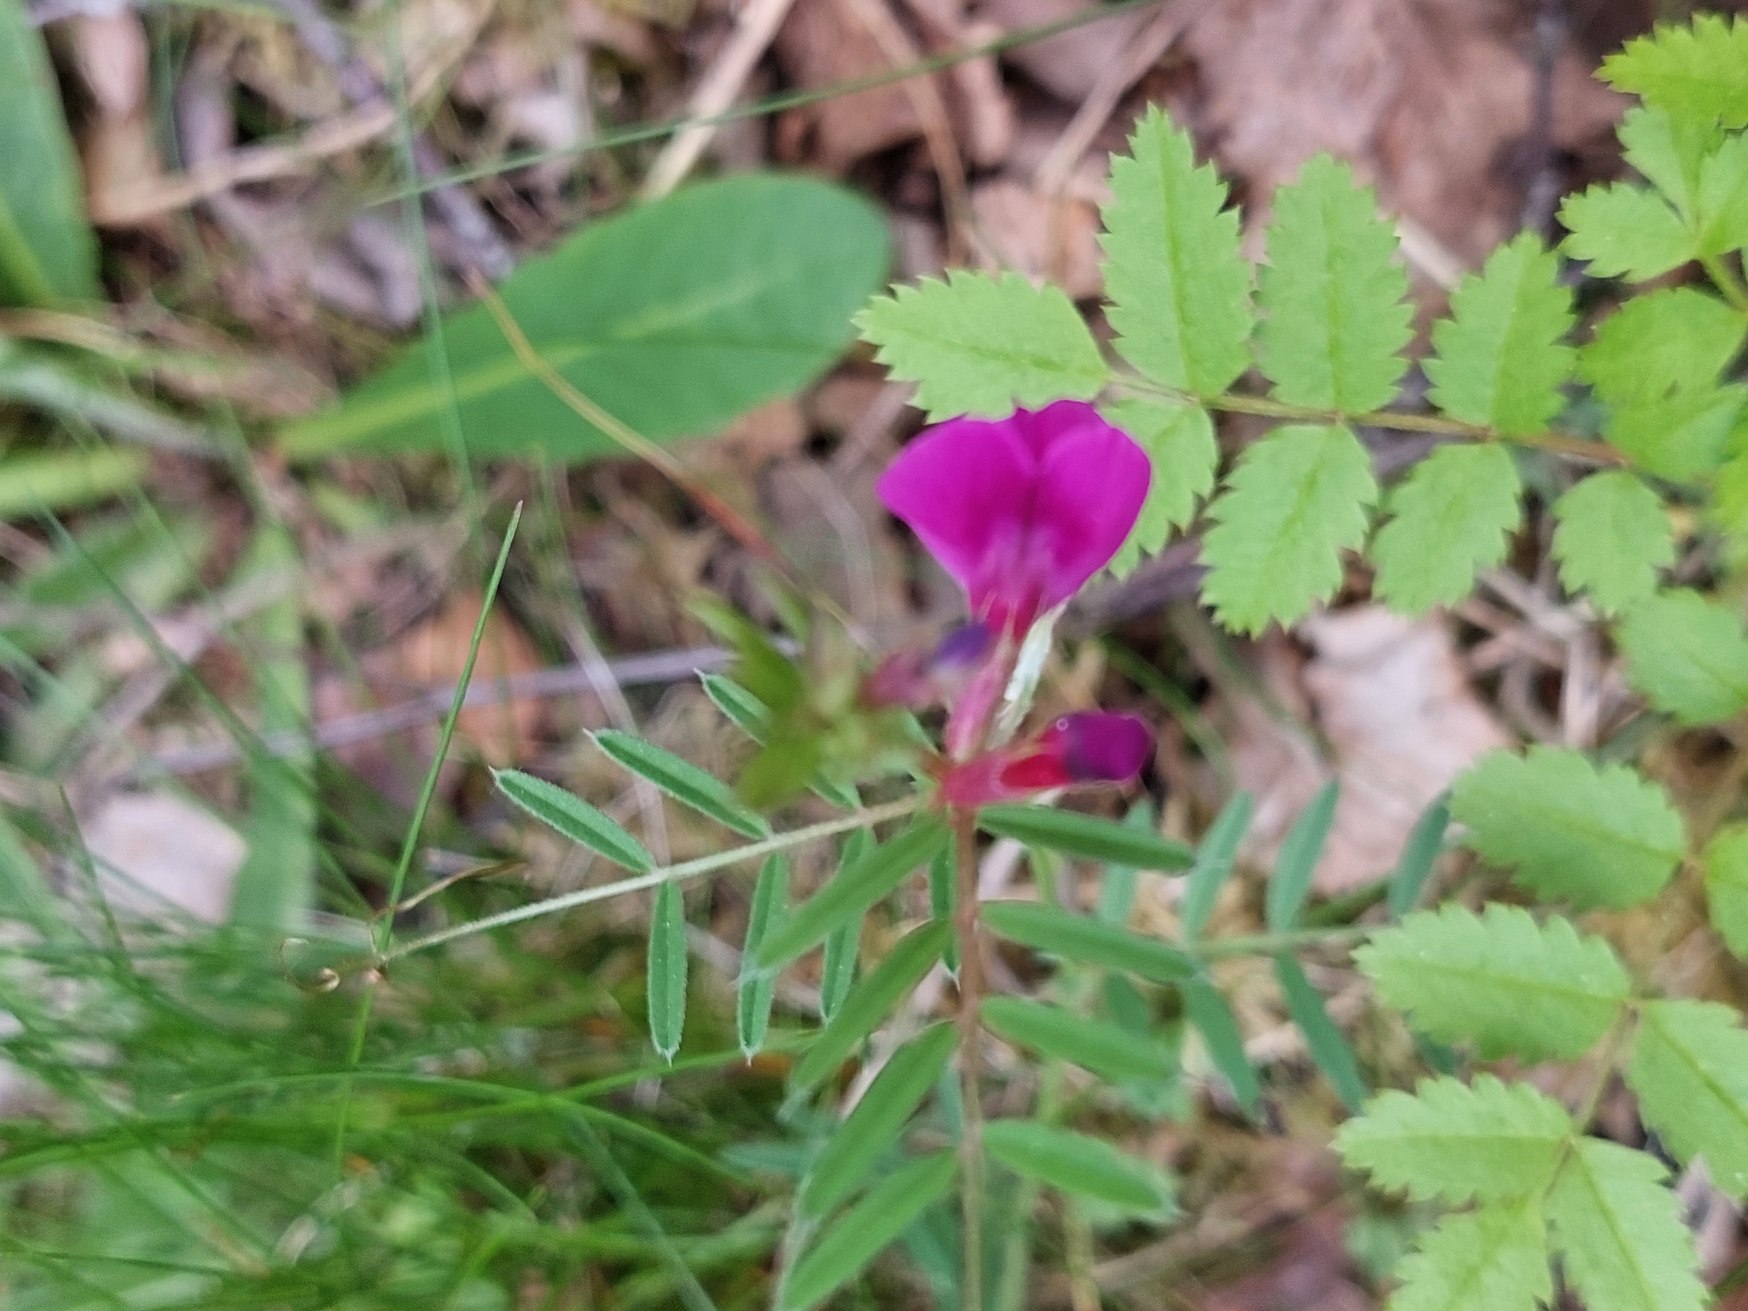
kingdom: Plantae
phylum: Tracheophyta
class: Magnoliopsida
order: Fabales
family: Fabaceae
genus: Vicia
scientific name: Vicia sativa
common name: Smalbladet vikke
